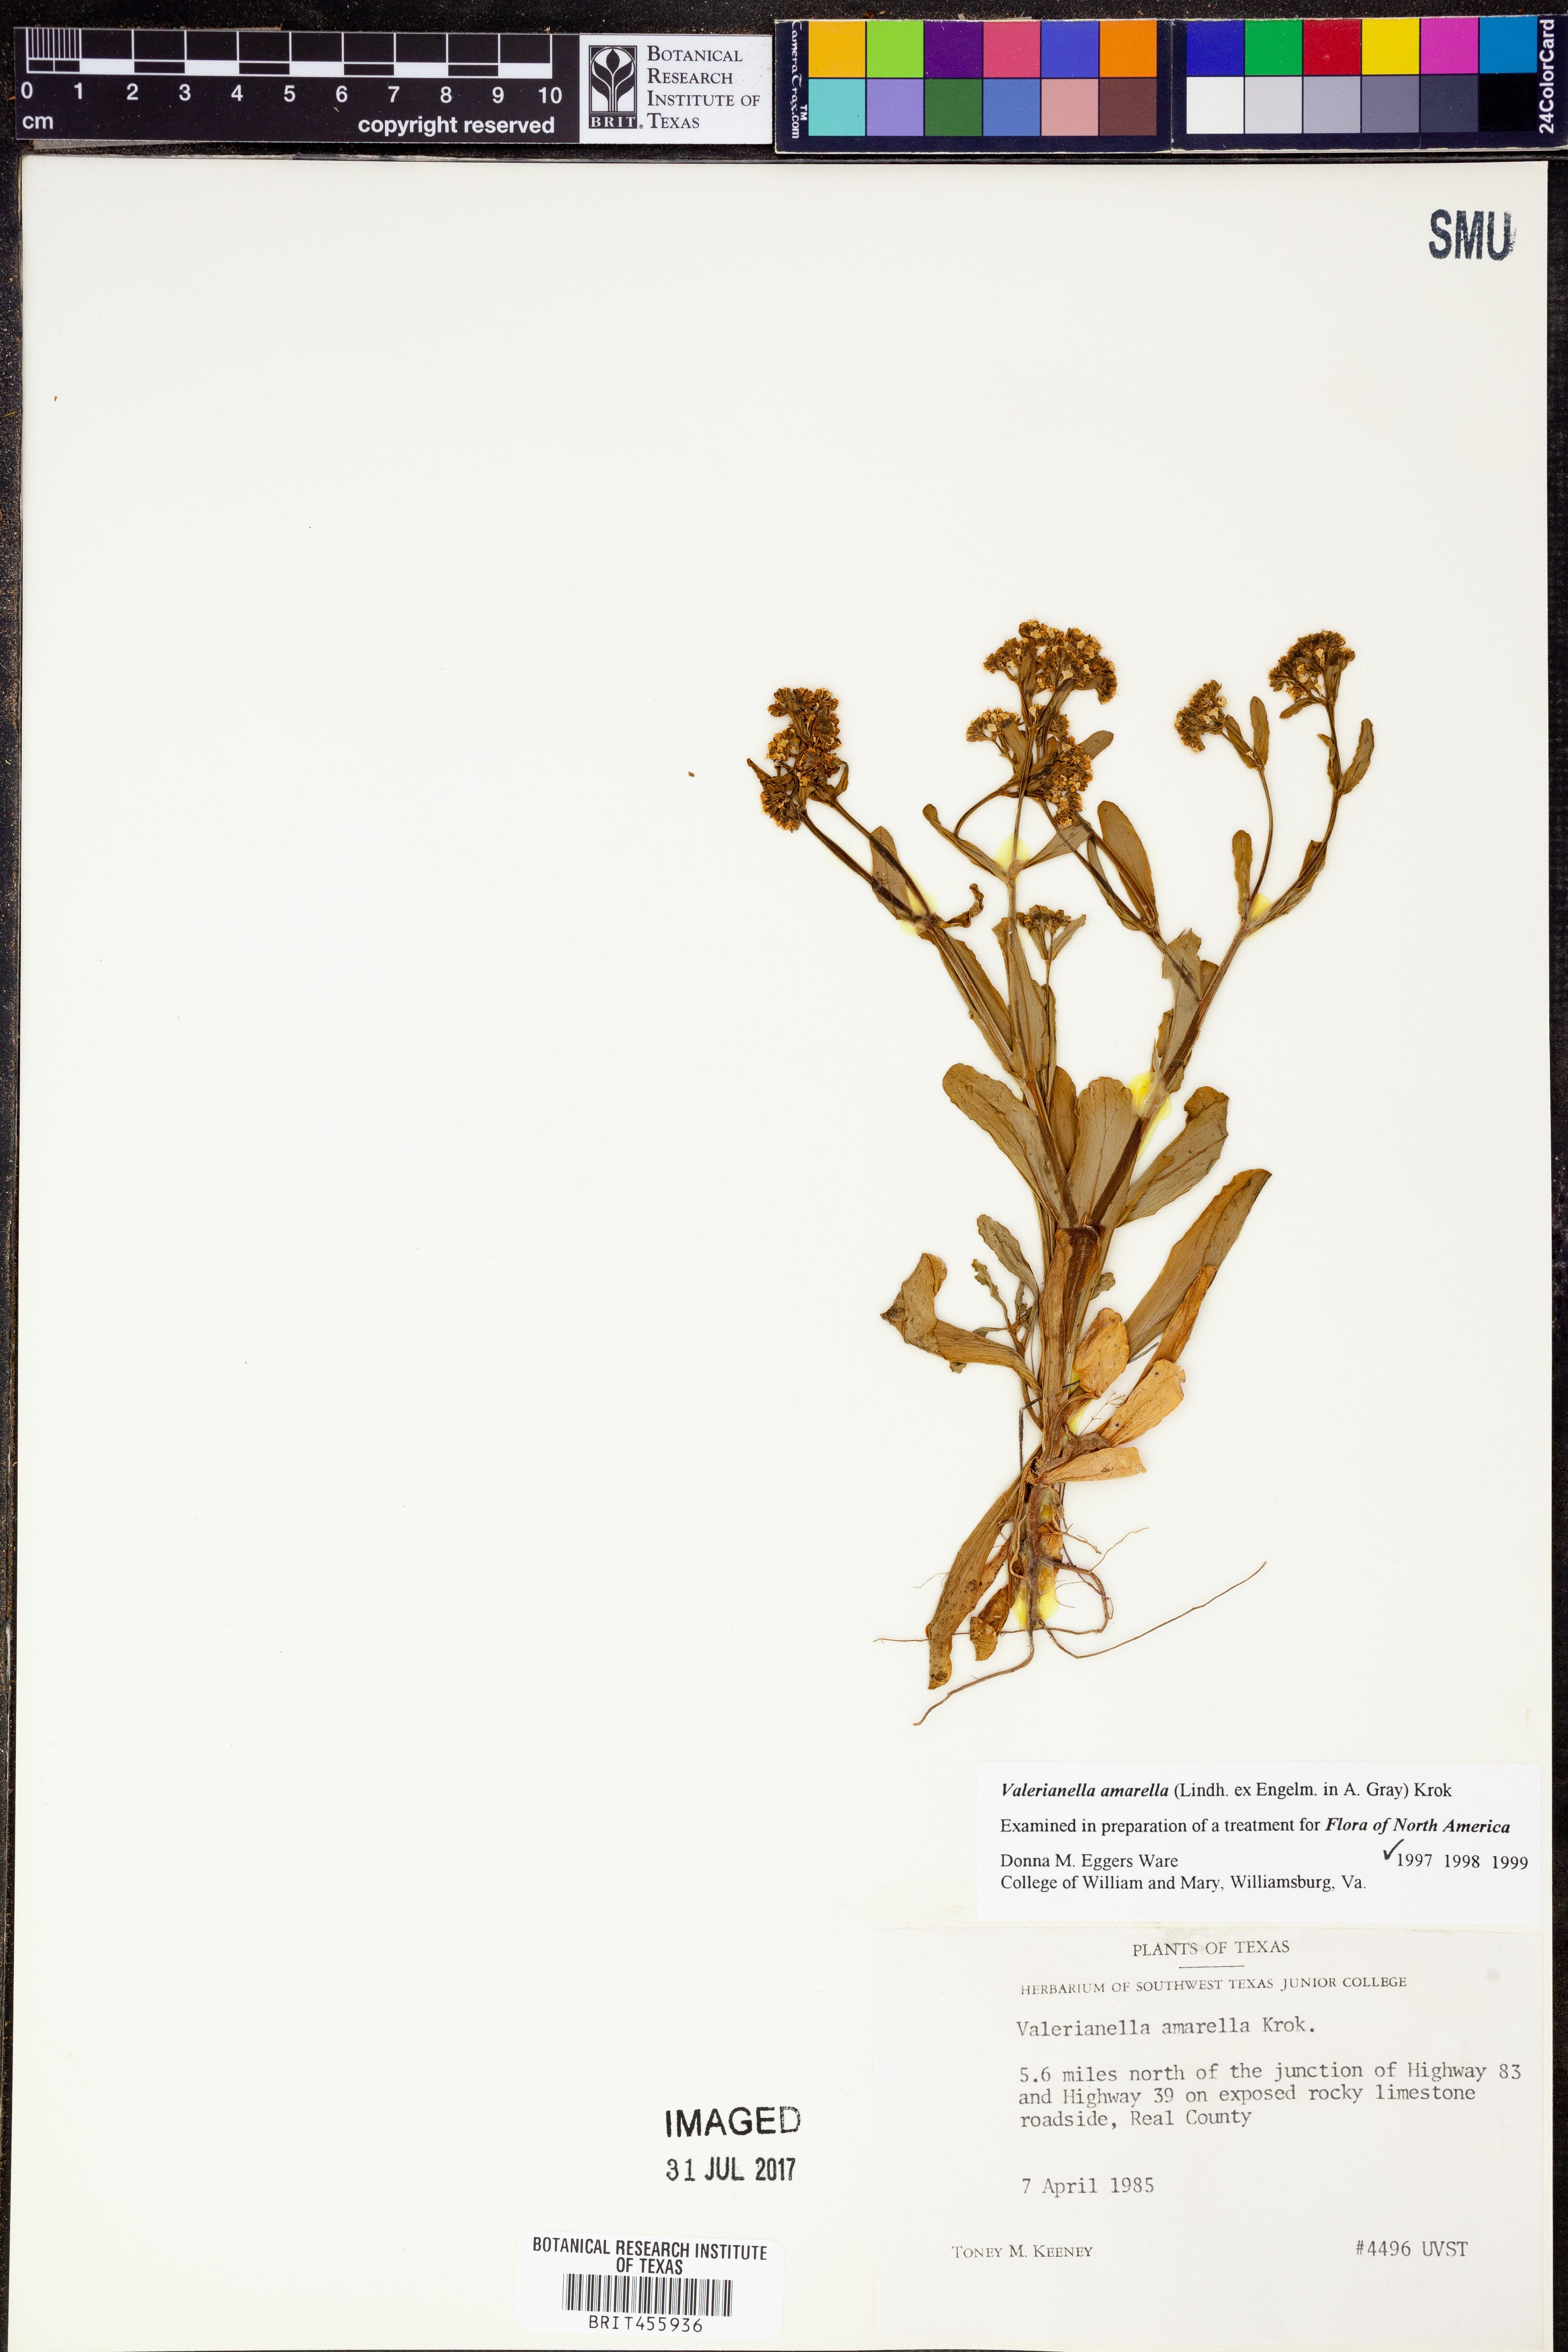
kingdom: Plantae
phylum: Tracheophyta
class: Magnoliopsida
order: Dipsacales
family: Caprifoliaceae
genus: Valerianella
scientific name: Valerianella amarella
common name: Hariy cornsalad
